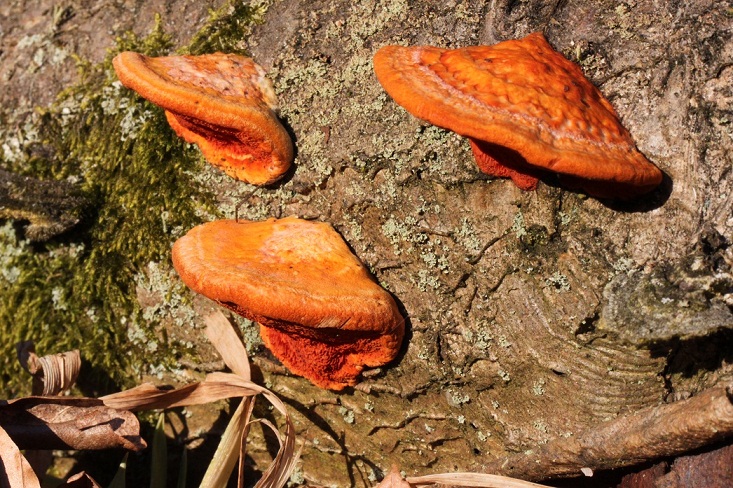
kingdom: Fungi
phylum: Basidiomycota
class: Agaricomycetes
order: Polyporales
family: Polyporaceae
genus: Trametes
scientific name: Trametes cinnabarina
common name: cinnoberporesvamp
